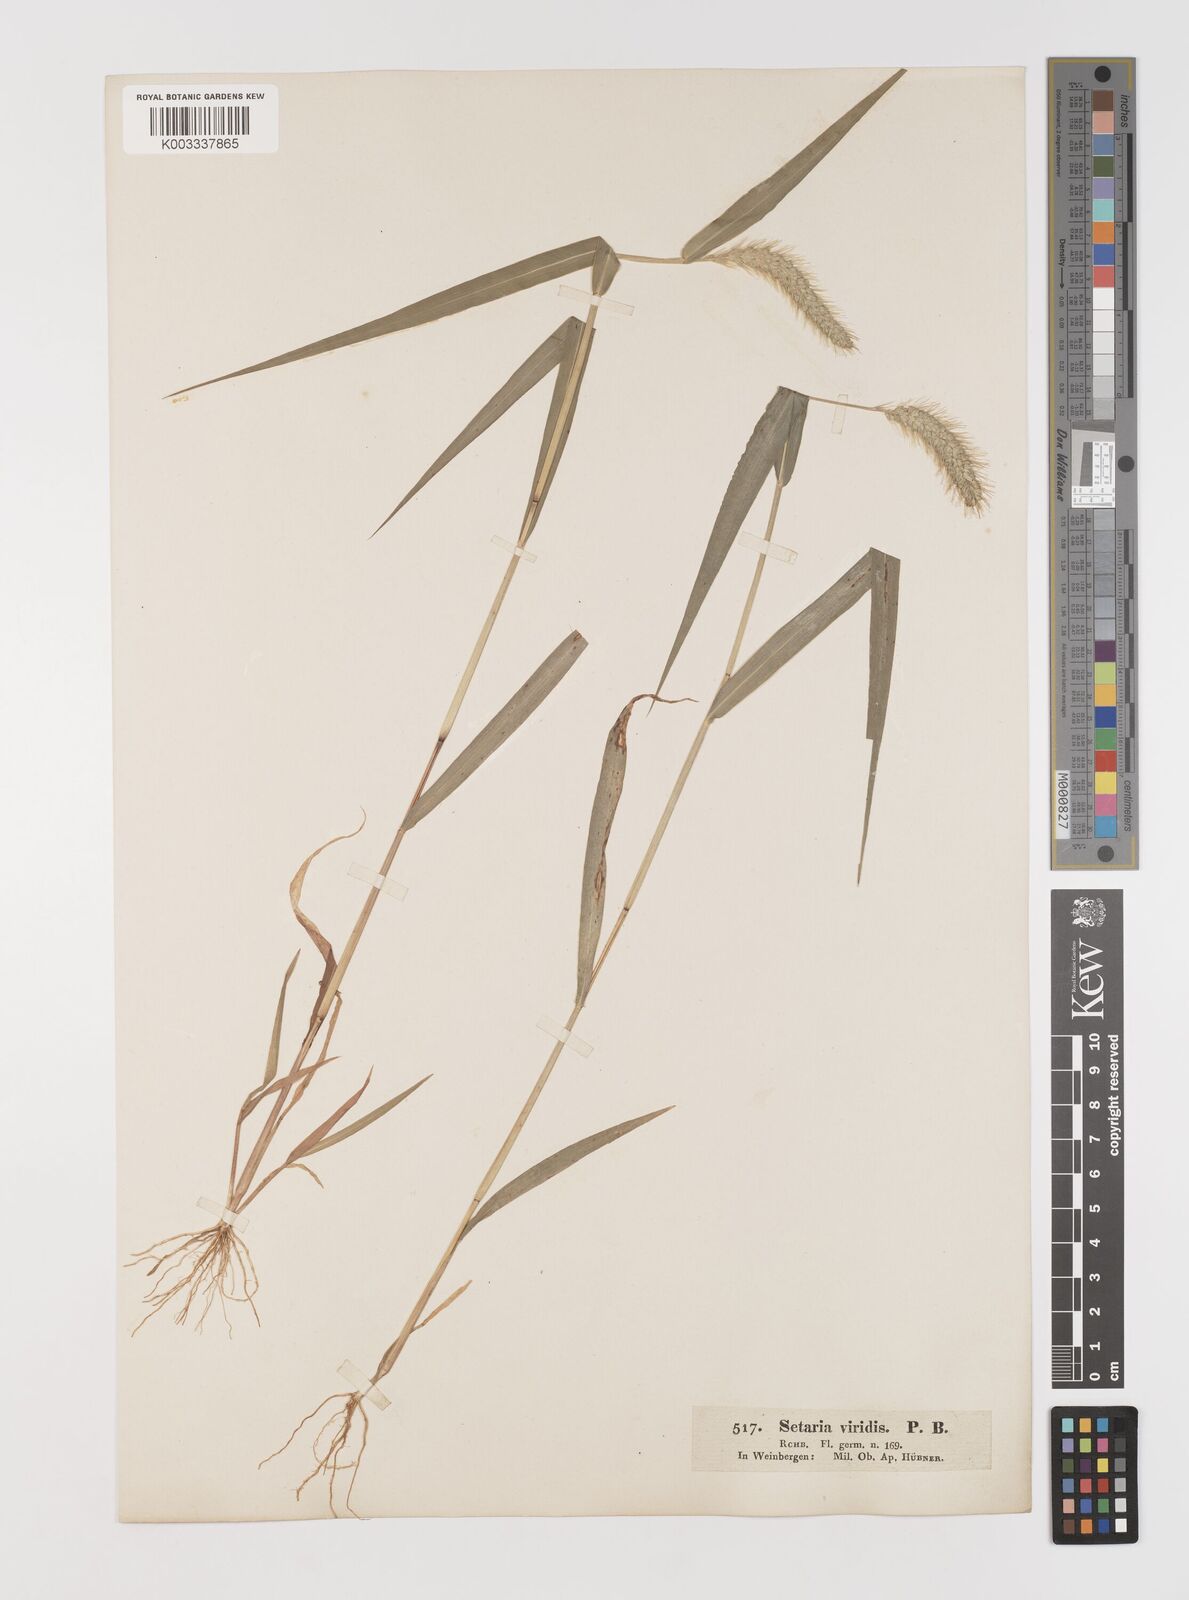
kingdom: Plantae
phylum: Tracheophyta
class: Liliopsida
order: Poales
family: Poaceae
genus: Setaria
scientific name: Setaria viridis
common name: Green bristlegrass
